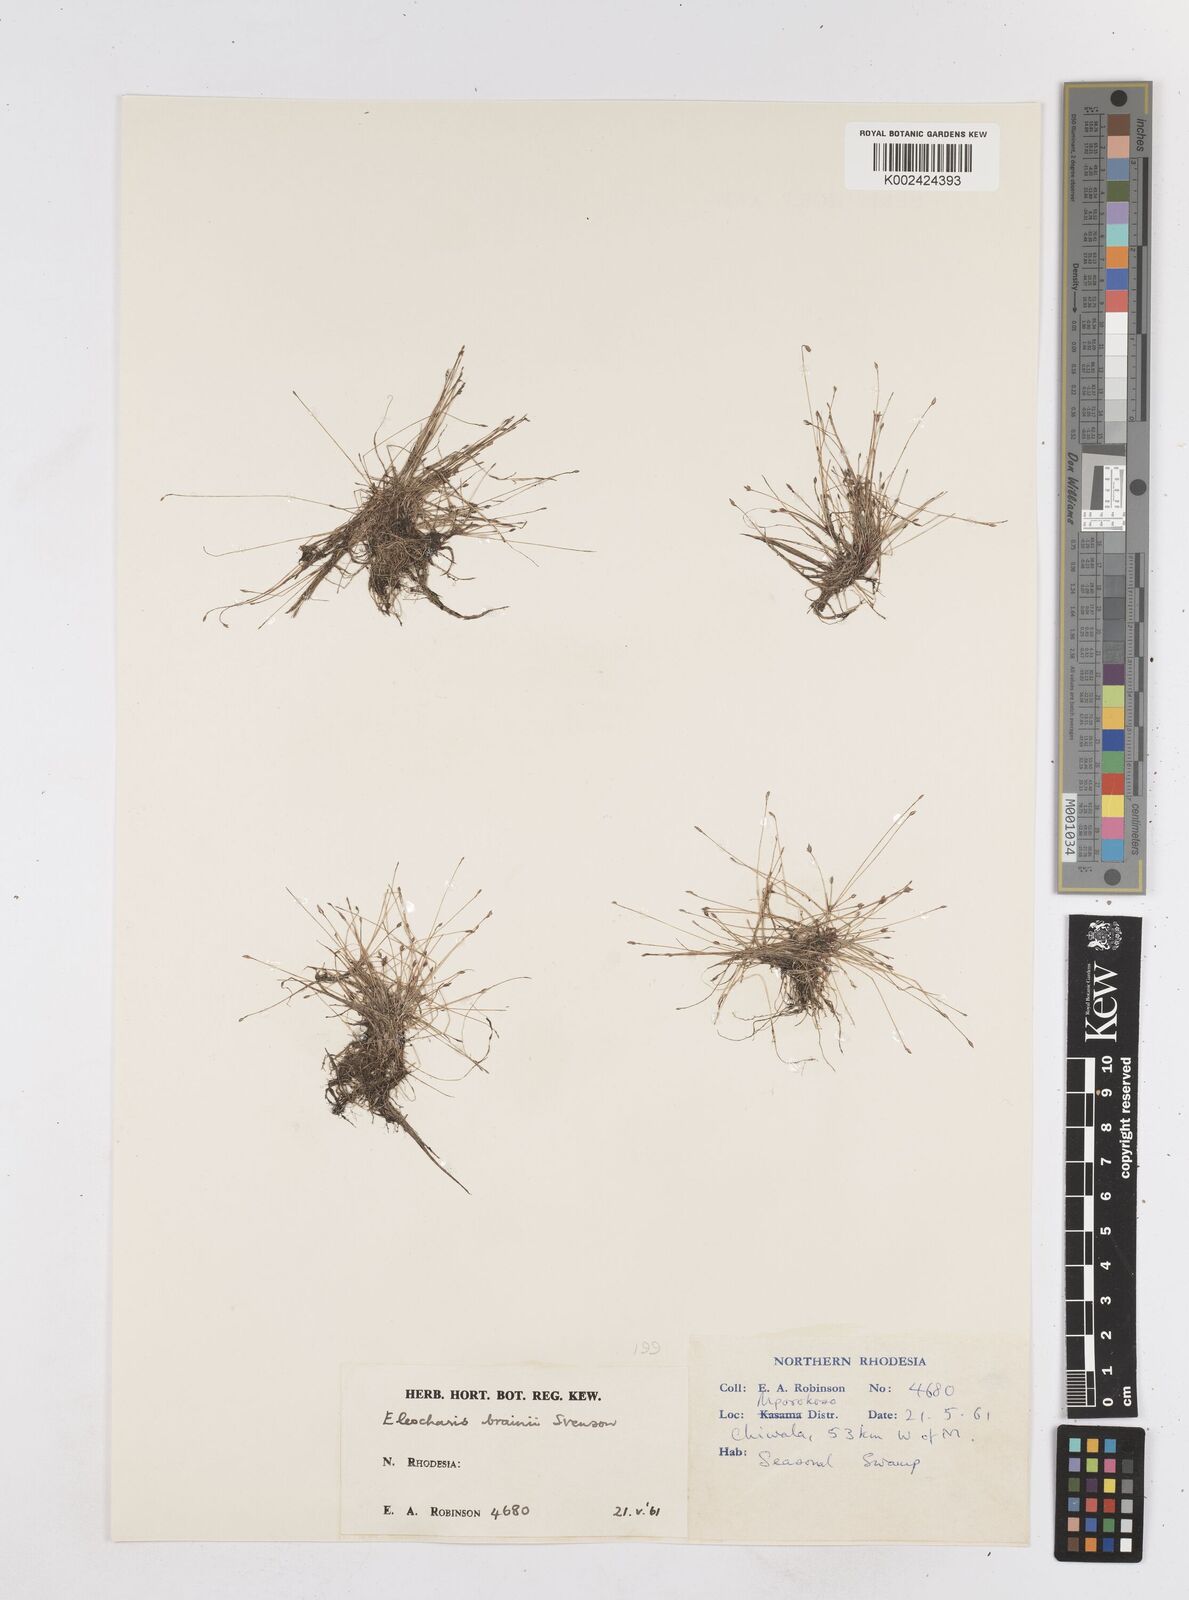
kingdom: Plantae
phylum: Tracheophyta
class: Liliopsida
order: Poales
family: Cyperaceae
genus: Eleocharis
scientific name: Eleocharis brainii
